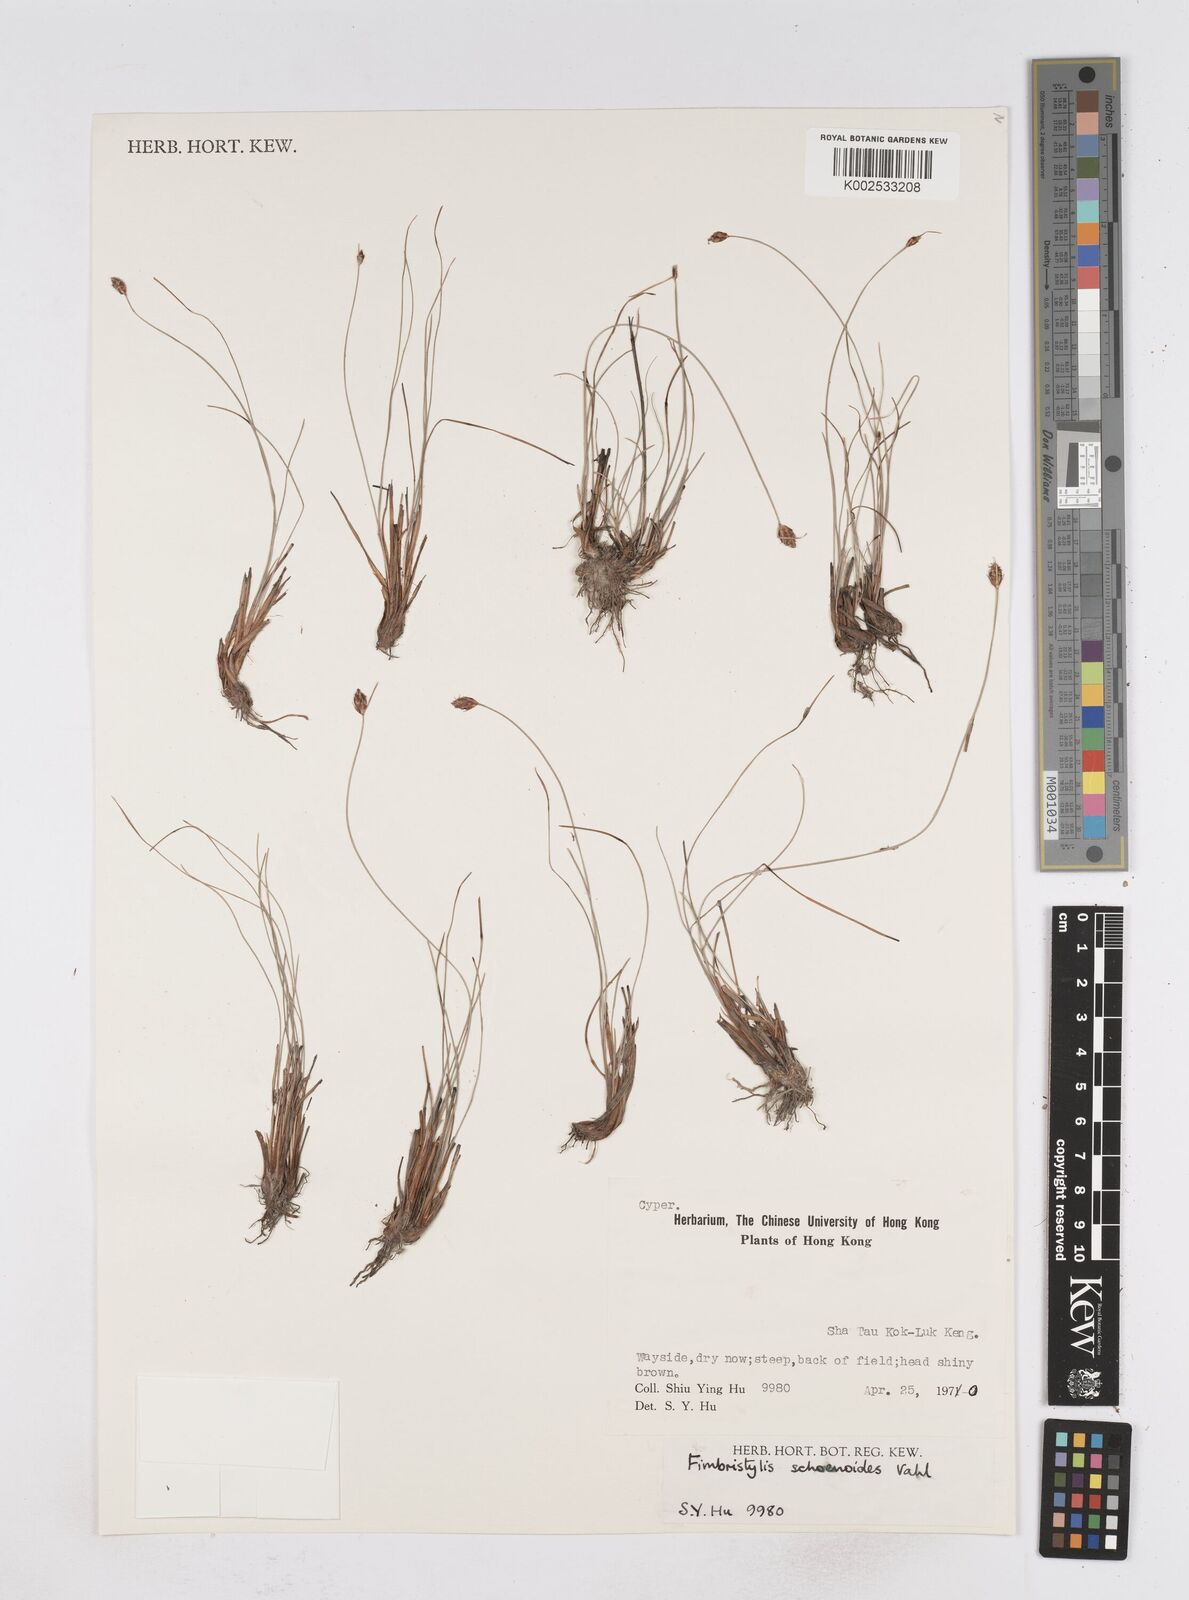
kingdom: Plantae
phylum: Tracheophyta
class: Liliopsida
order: Poales
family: Cyperaceae
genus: Fimbristylis
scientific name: Fimbristylis schoenoides
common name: Ditch fimbry
